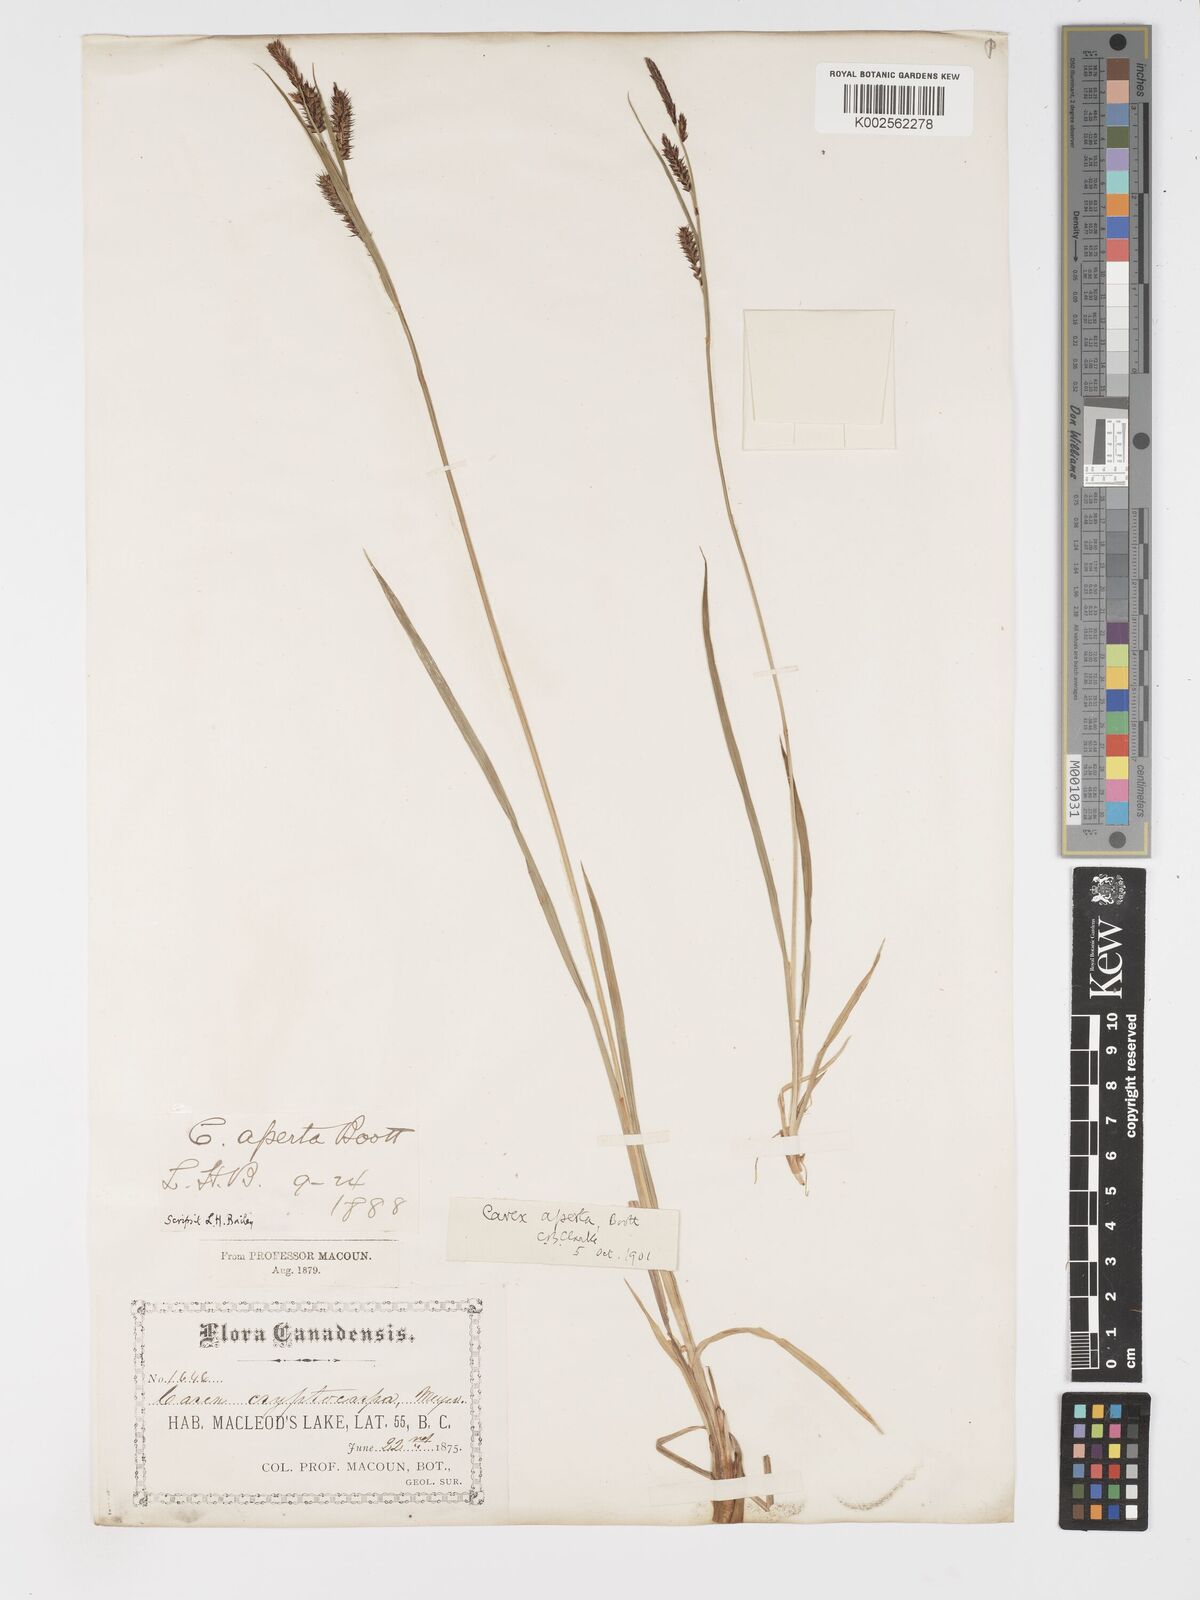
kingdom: Plantae
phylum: Tracheophyta
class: Liliopsida
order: Poales
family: Cyperaceae
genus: Carex
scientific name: Carex aperta
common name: Columbia sedge
